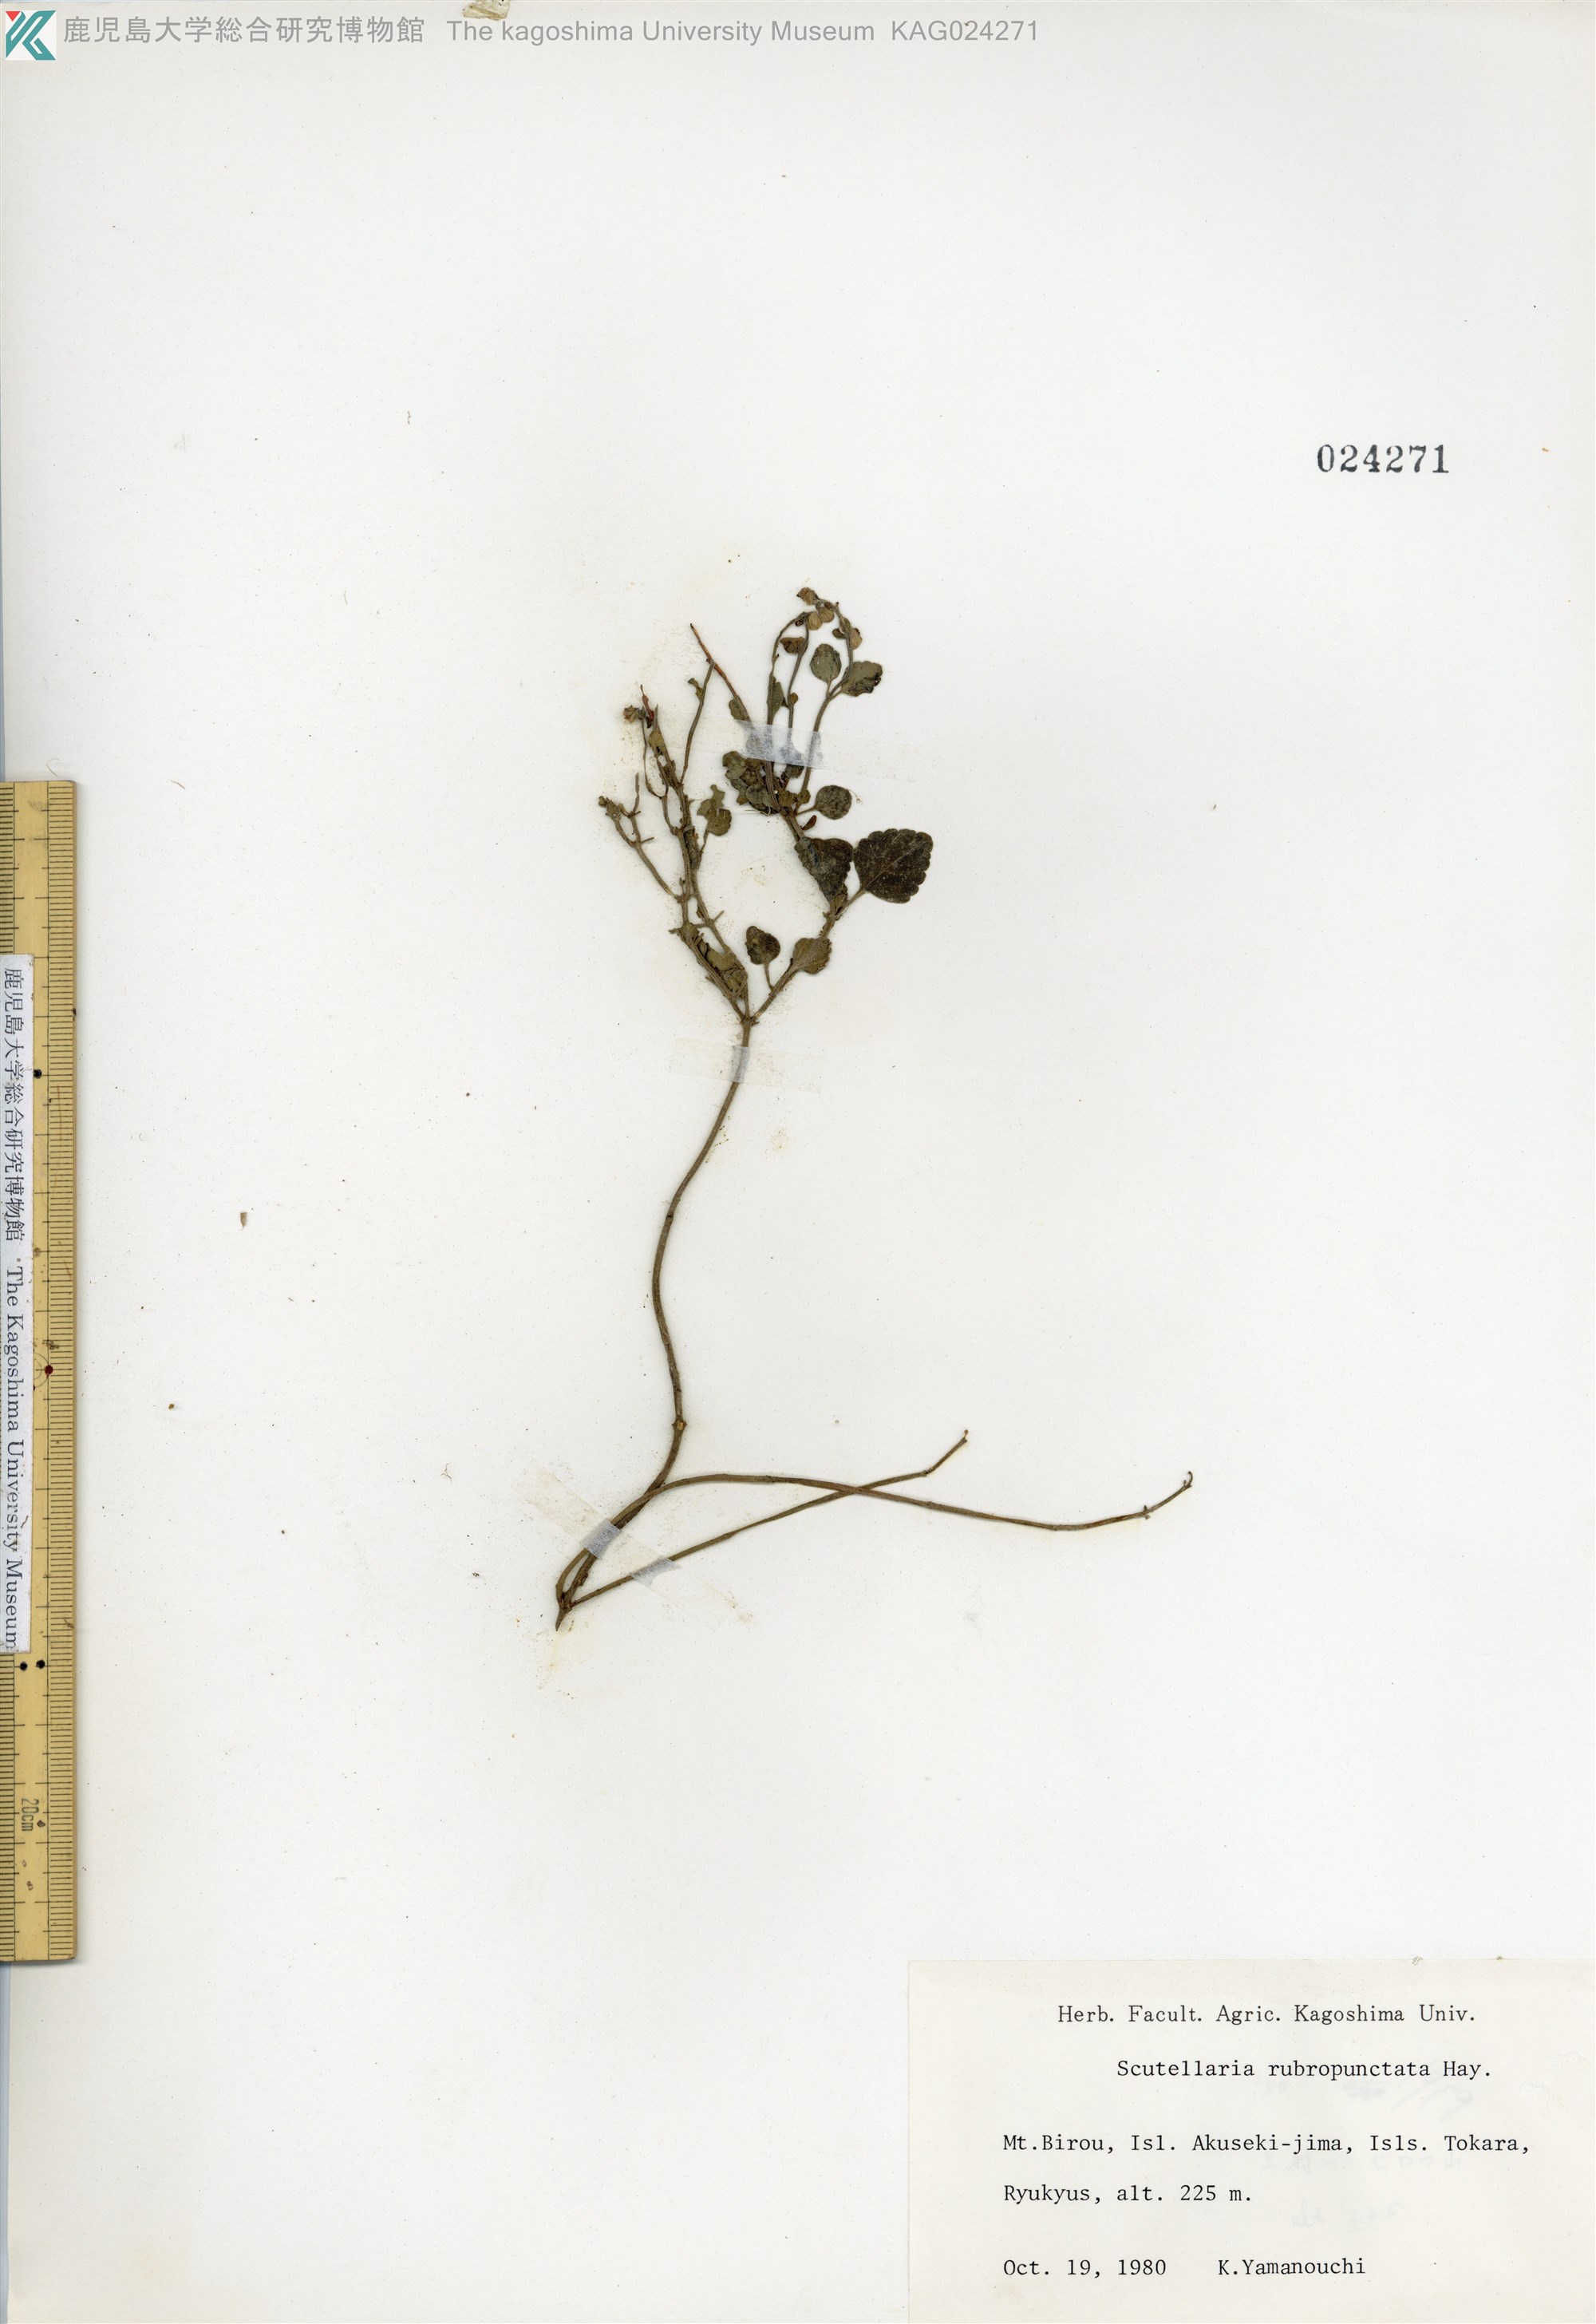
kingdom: Plantae
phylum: Tracheophyta
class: Magnoliopsida
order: Lamiales
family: Lamiaceae
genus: Scutellaria
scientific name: Scutellaria rubropunctata
